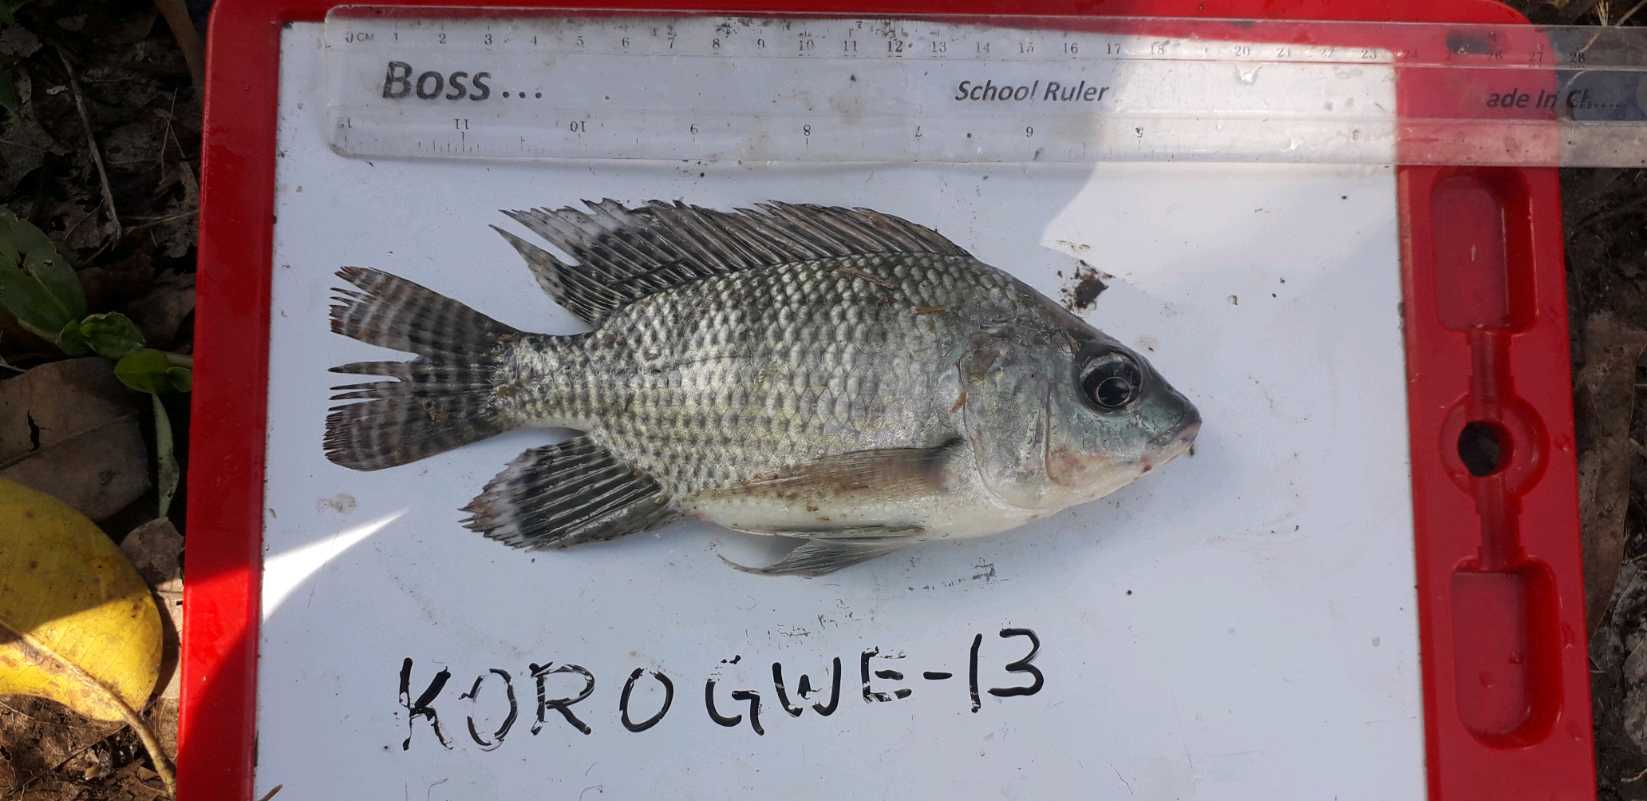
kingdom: Animalia
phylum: Chordata
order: Perciformes
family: Cichlidae
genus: Oreochromis
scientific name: Oreochromis niloticus
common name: Nile tilapia
